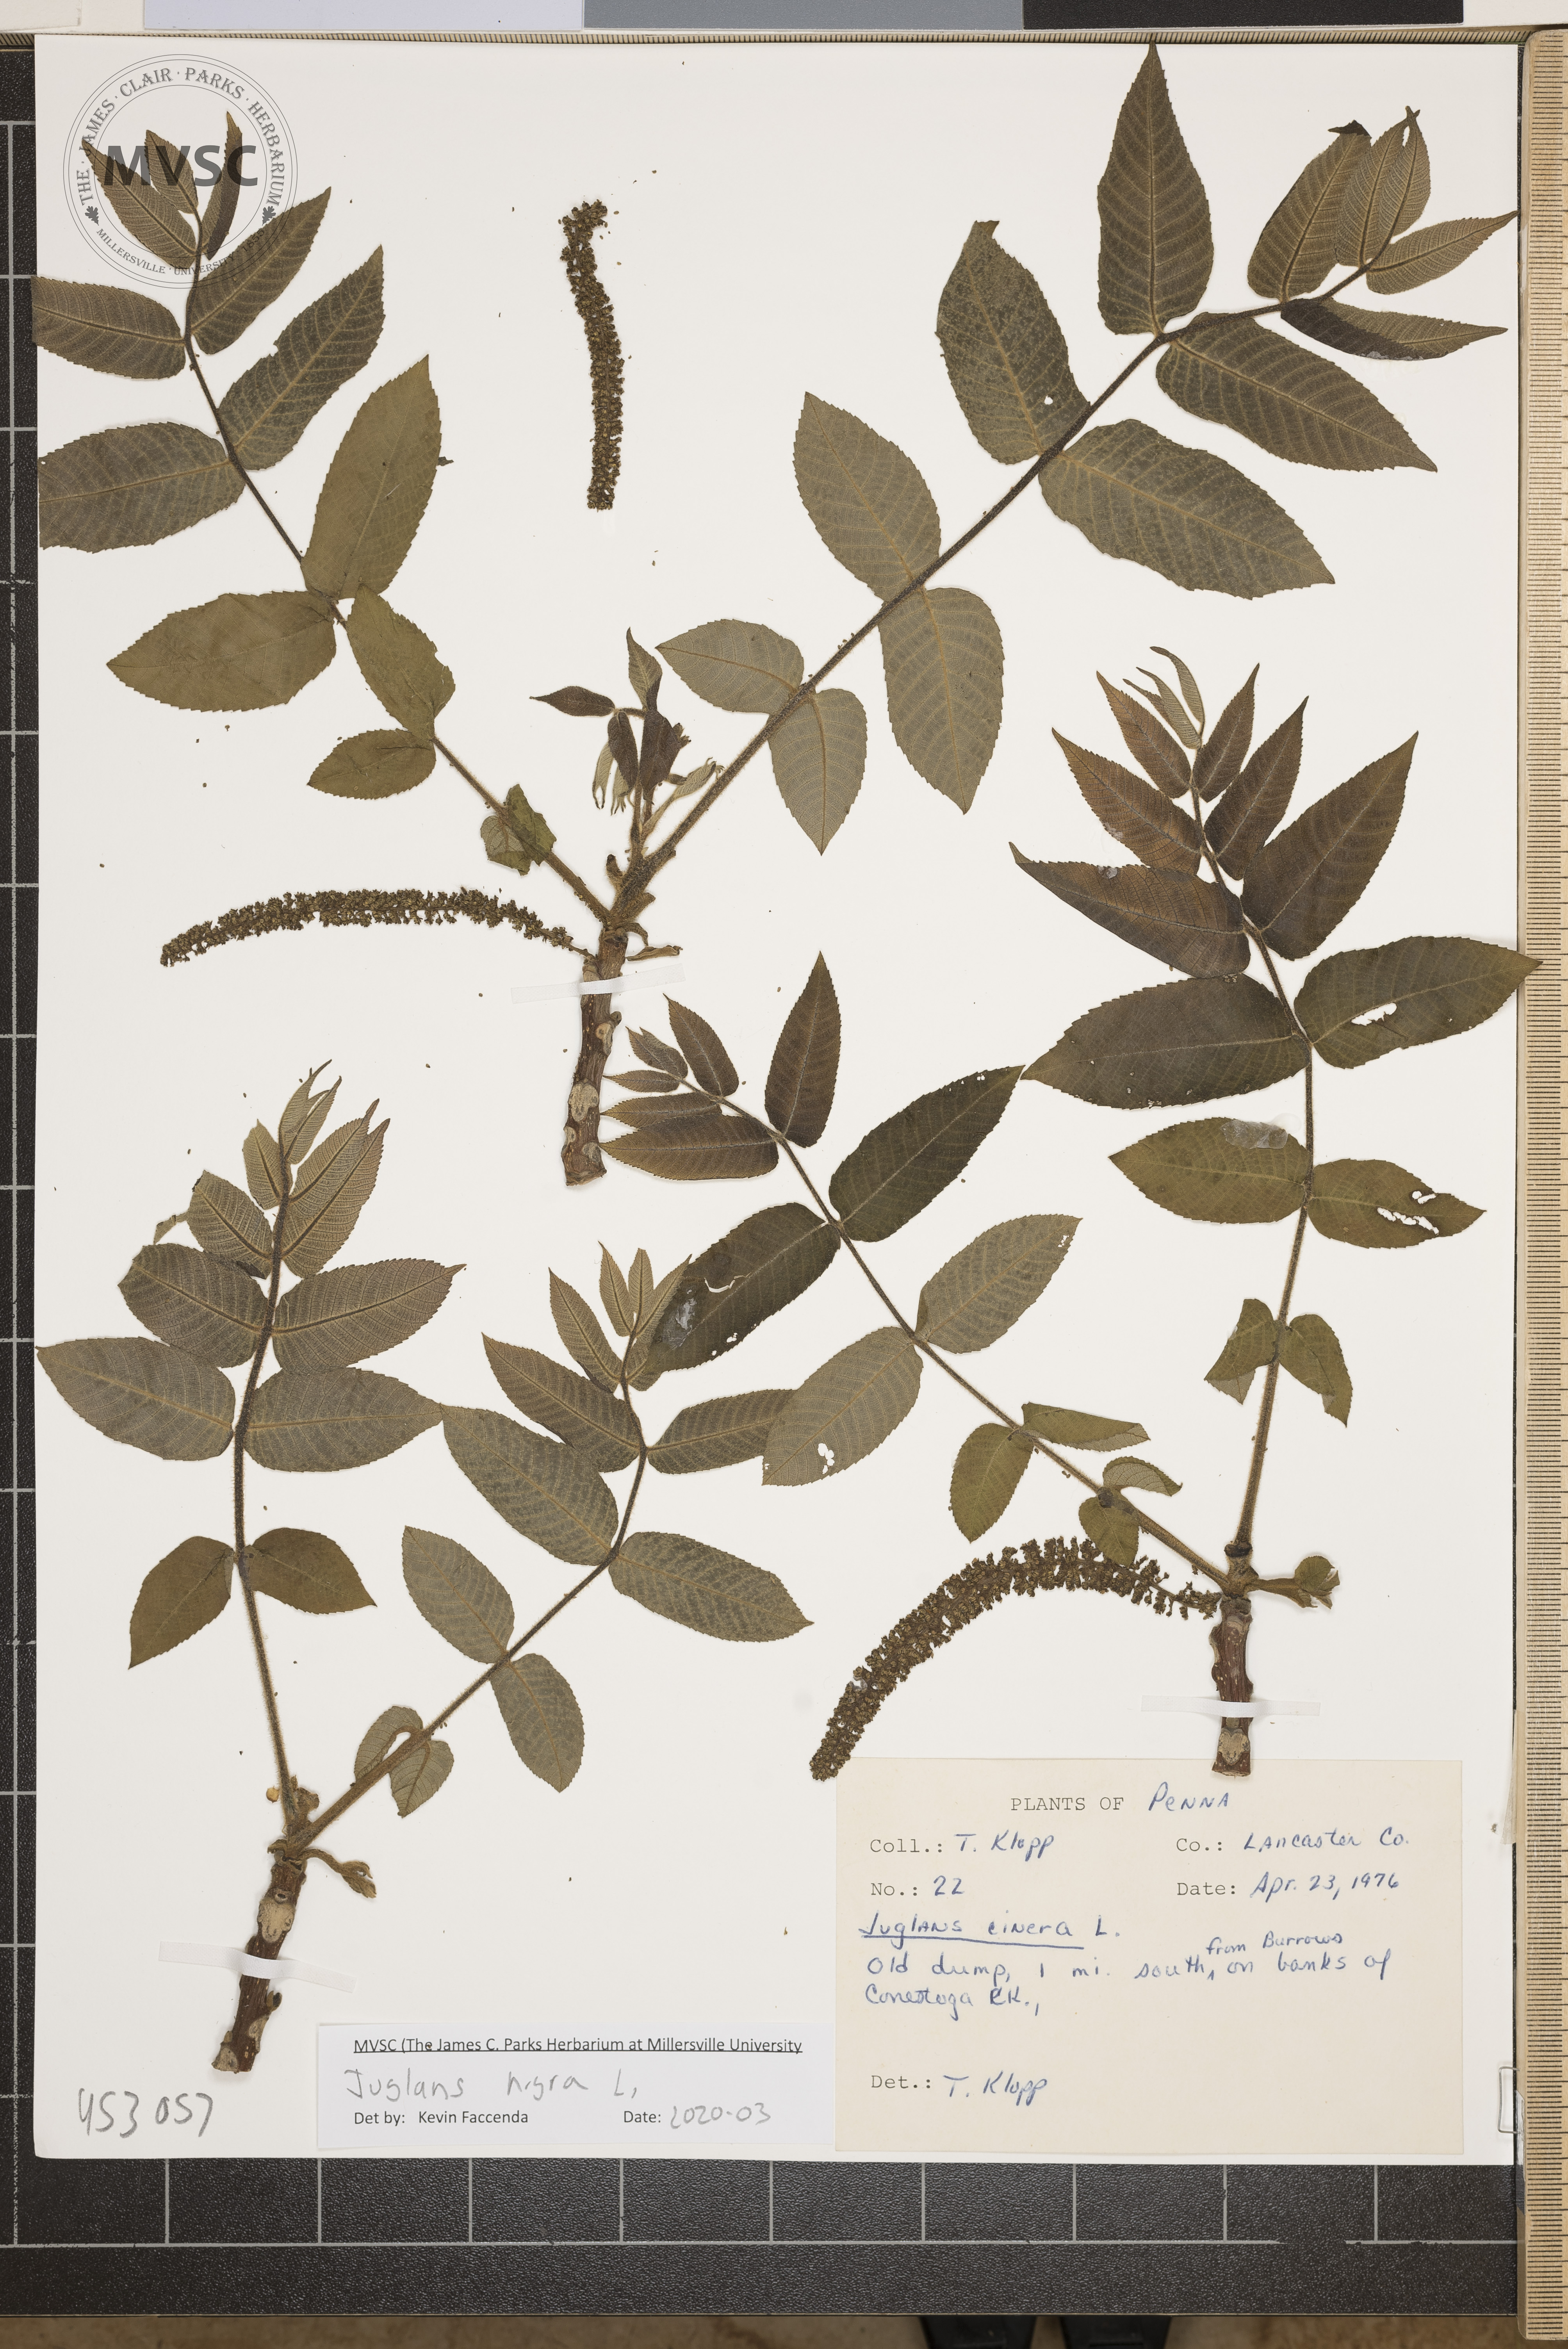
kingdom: Plantae
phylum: Tracheophyta
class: Magnoliopsida
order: Fagales
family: Juglandaceae
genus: Juglans
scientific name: Juglans nigra
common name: Black walnut
